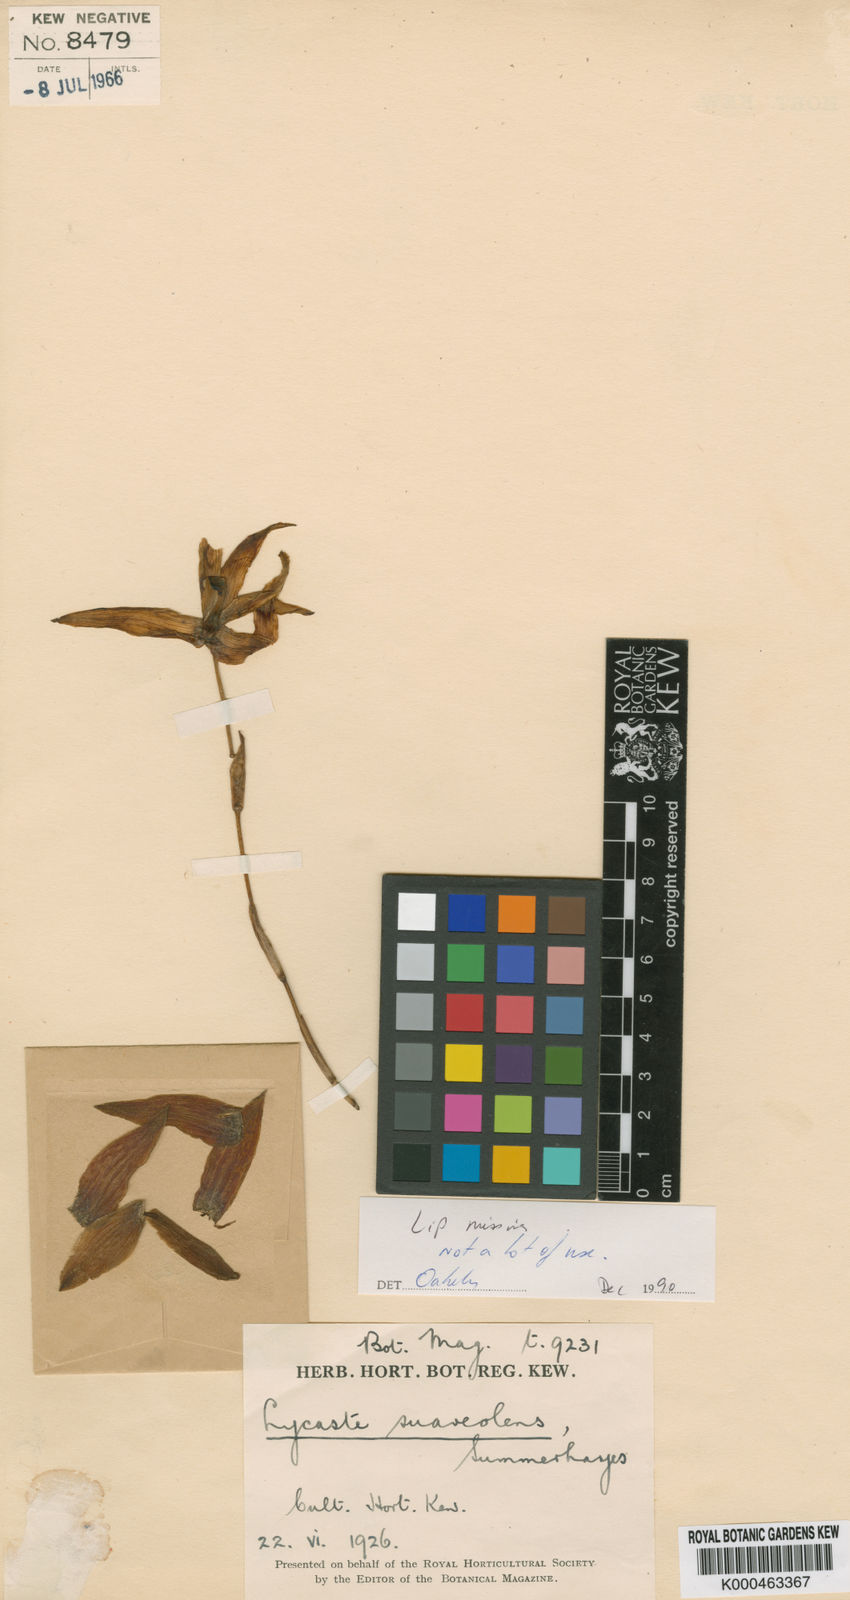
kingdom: Plantae
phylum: Tracheophyta
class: Liliopsida
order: Asparagales
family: Orchidaceae
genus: Lycaste
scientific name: Lycaste suaveolens
